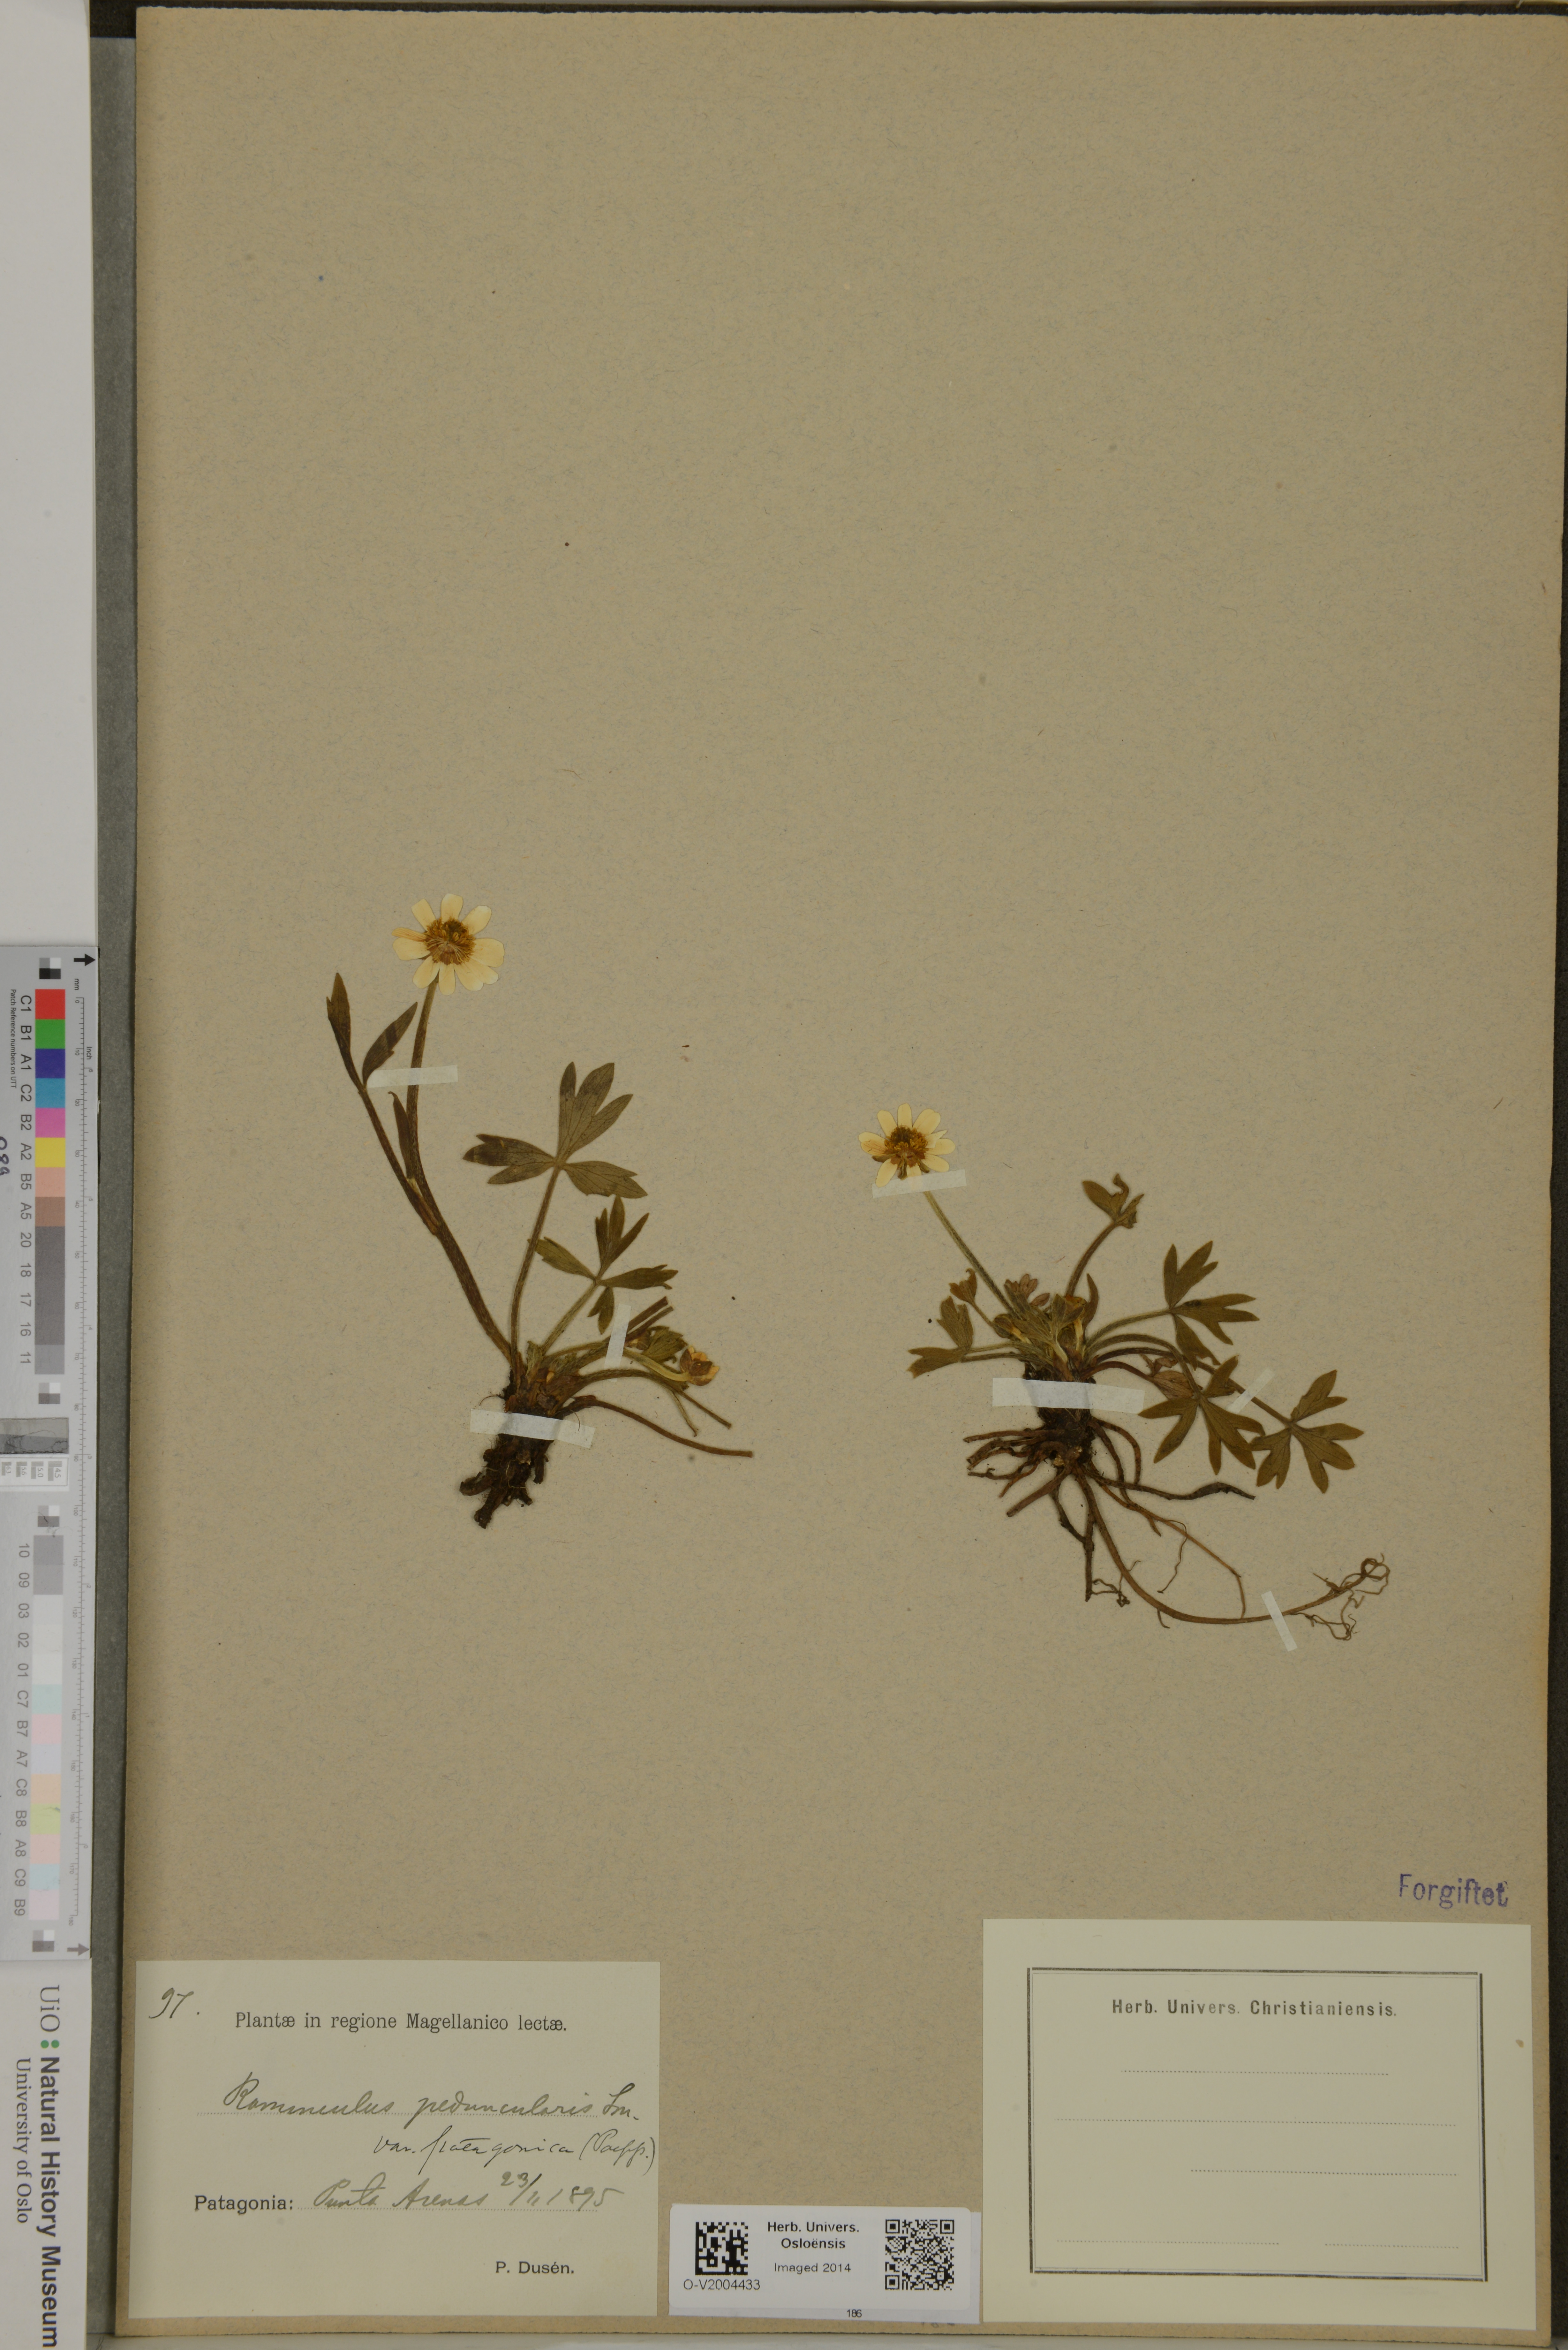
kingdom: Plantae
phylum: Tracheophyta
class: Magnoliopsida
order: Ranunculales
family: Ranunculaceae
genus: Ranunculus
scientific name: Ranunculus peduncularis
